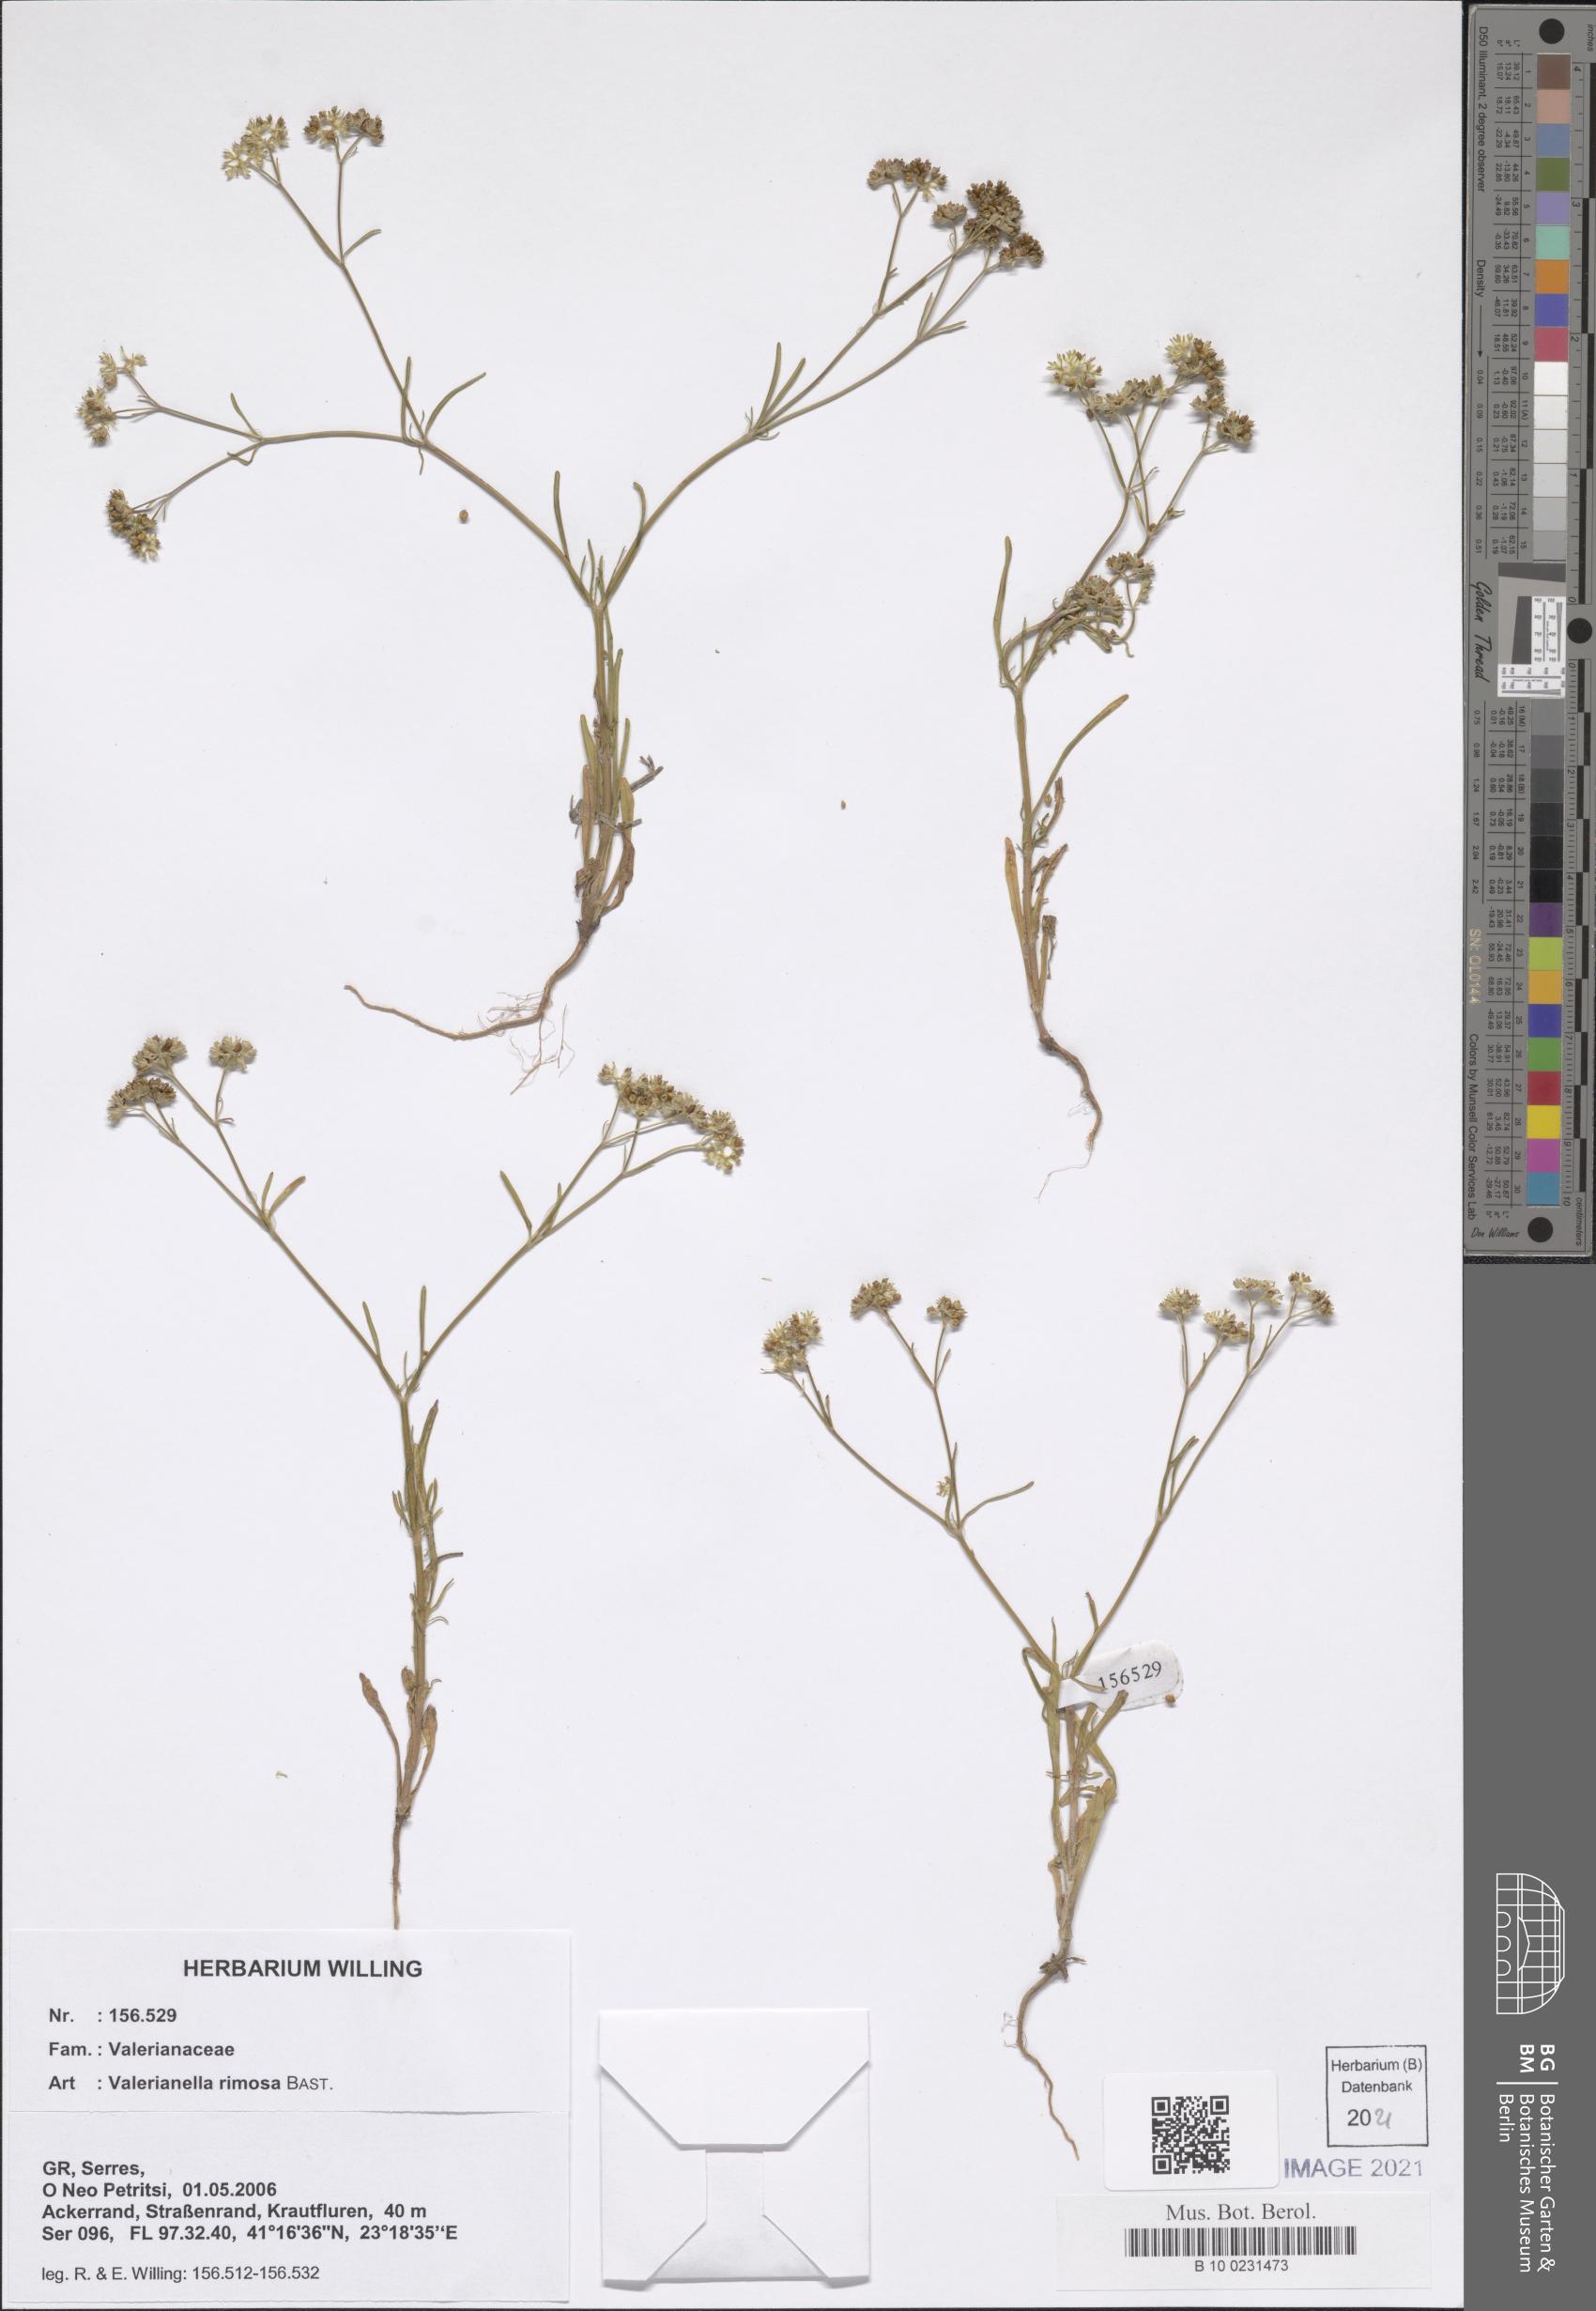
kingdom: Plantae
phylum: Tracheophyta
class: Magnoliopsida
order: Dipsacales
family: Caprifoliaceae
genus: Valerianella
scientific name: Valerianella rimosa
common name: Broad-fruited cornsalad
